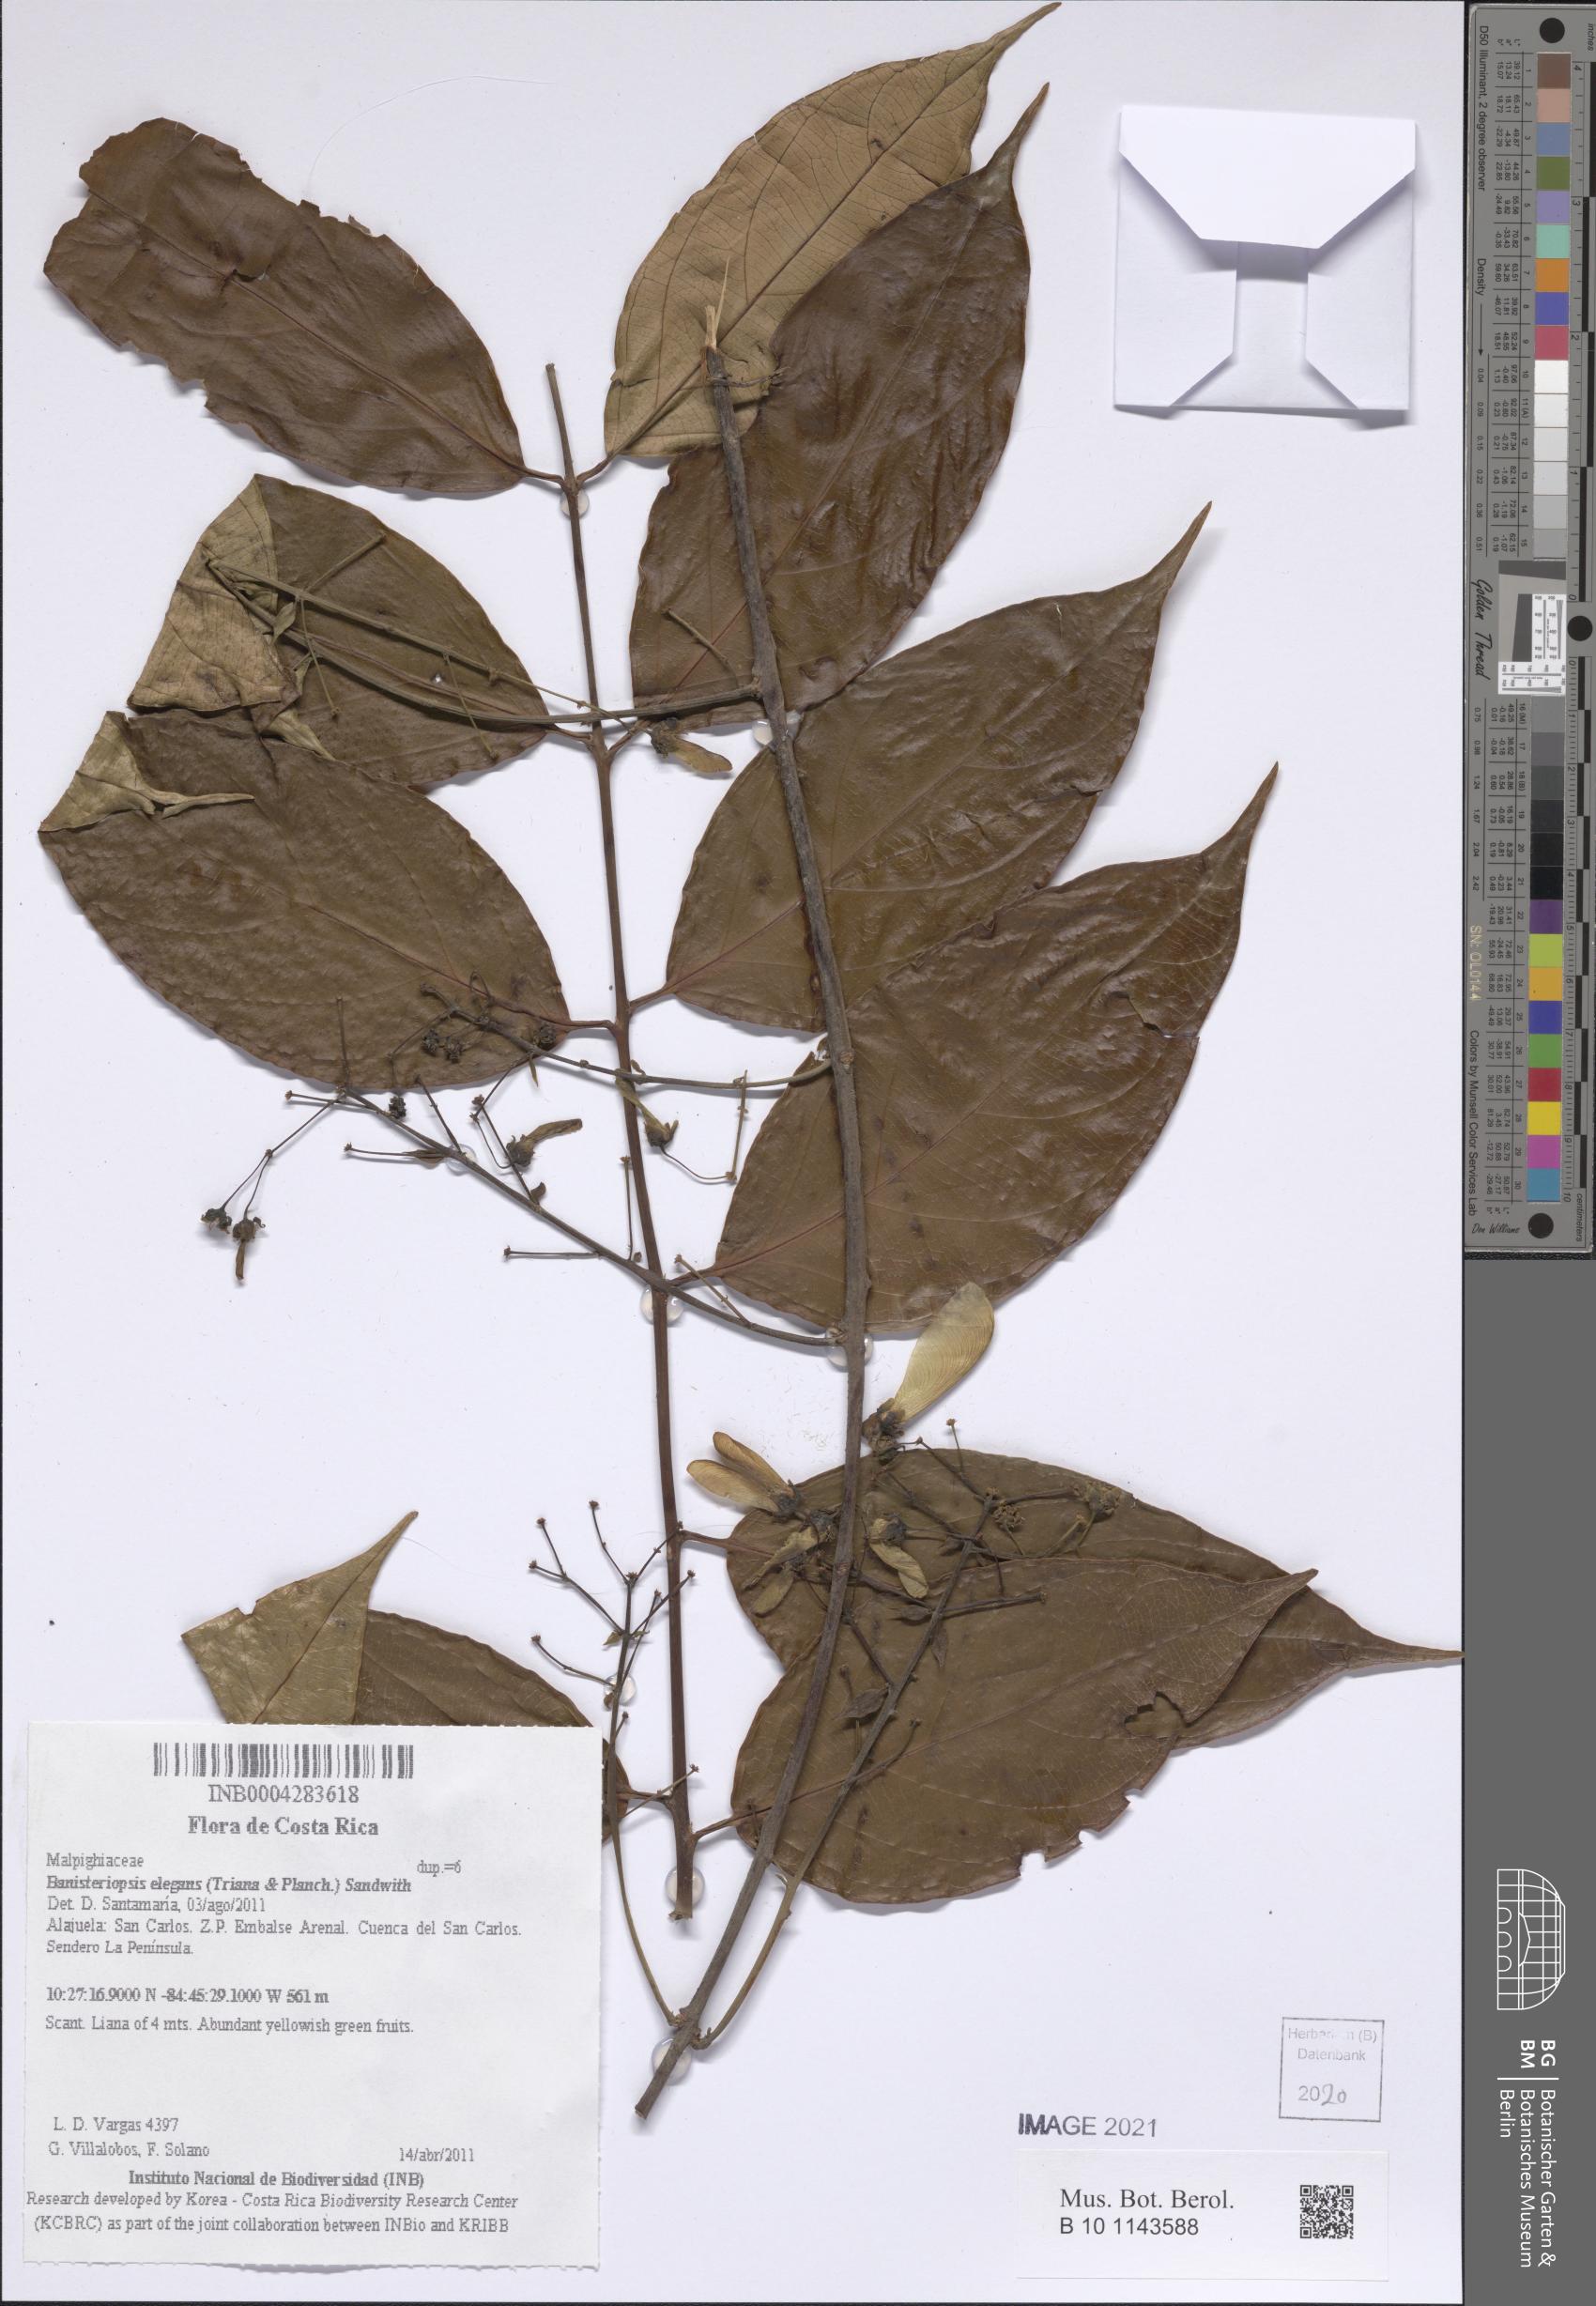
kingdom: Plantae
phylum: Tracheophyta
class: Magnoliopsida
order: Malpighiales
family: Malpighiaceae
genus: Banisteriopsis
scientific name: Banisteriopsis elegans
